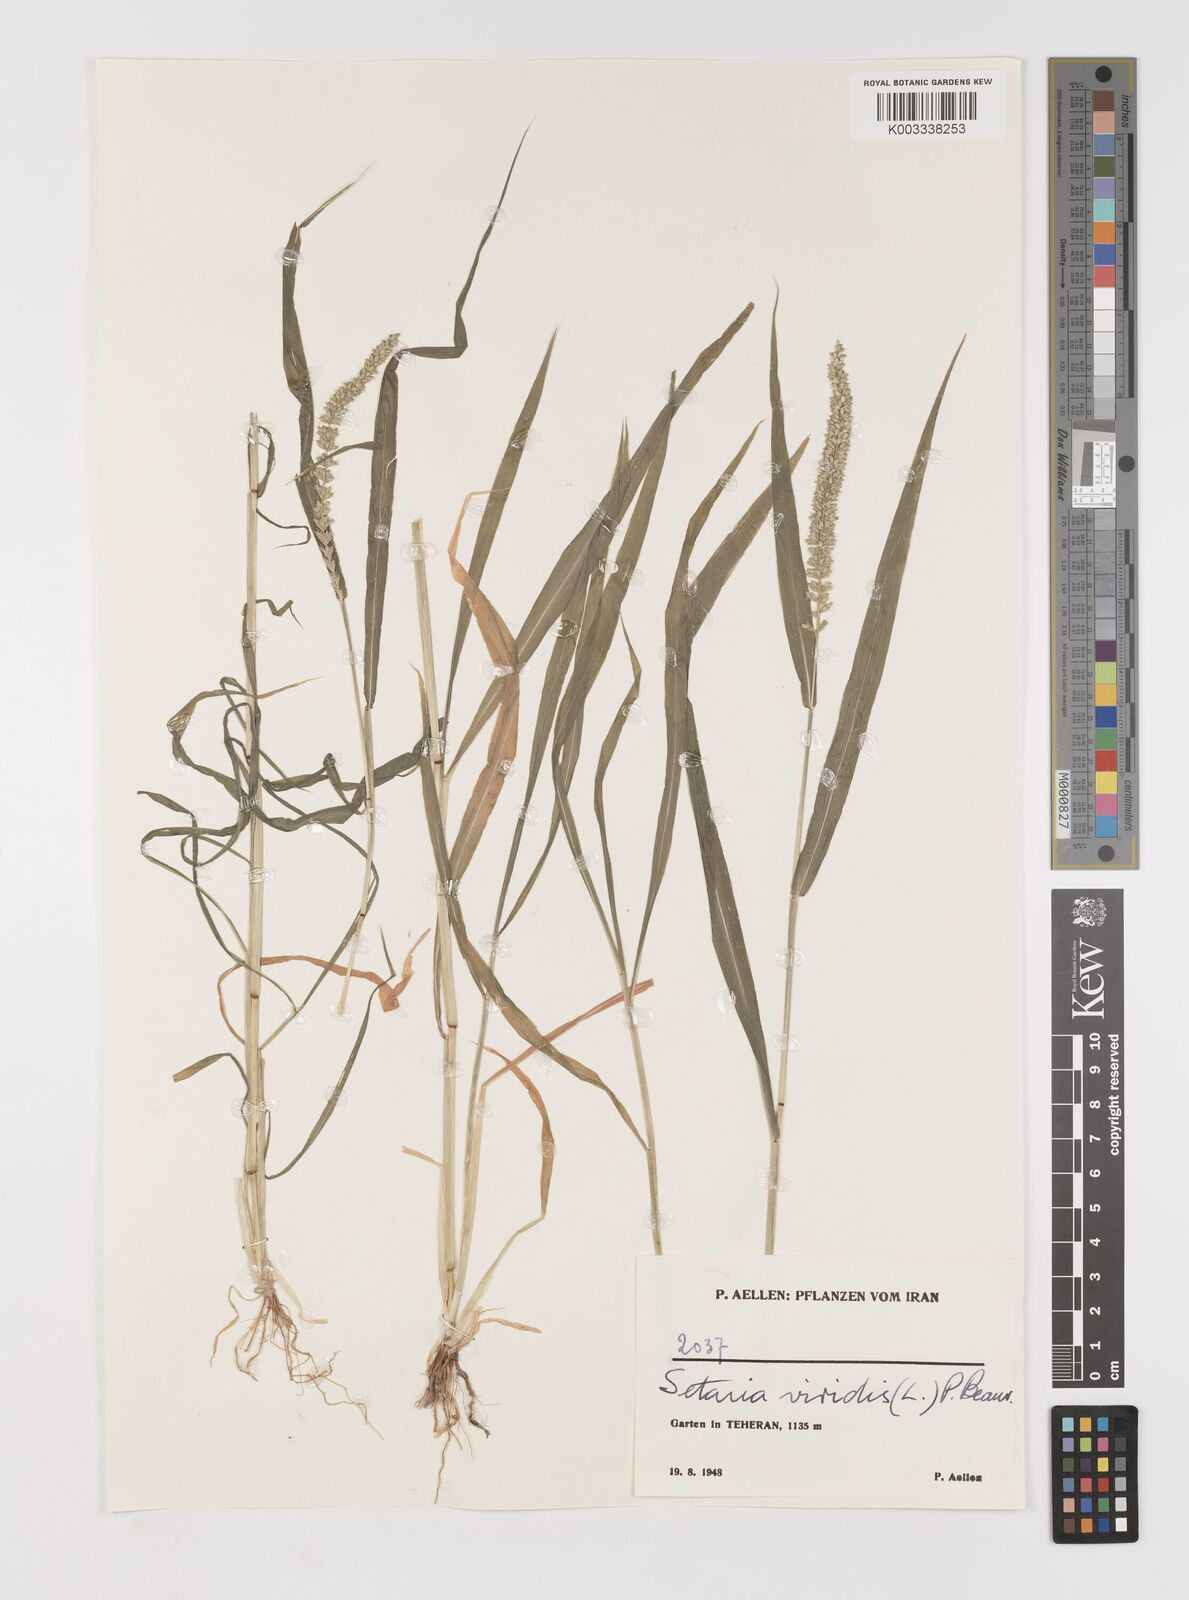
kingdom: Plantae
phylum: Tracheophyta
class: Liliopsida
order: Poales
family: Poaceae
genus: Setaria
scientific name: Setaria verticillata
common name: Hooked bristlegrass
